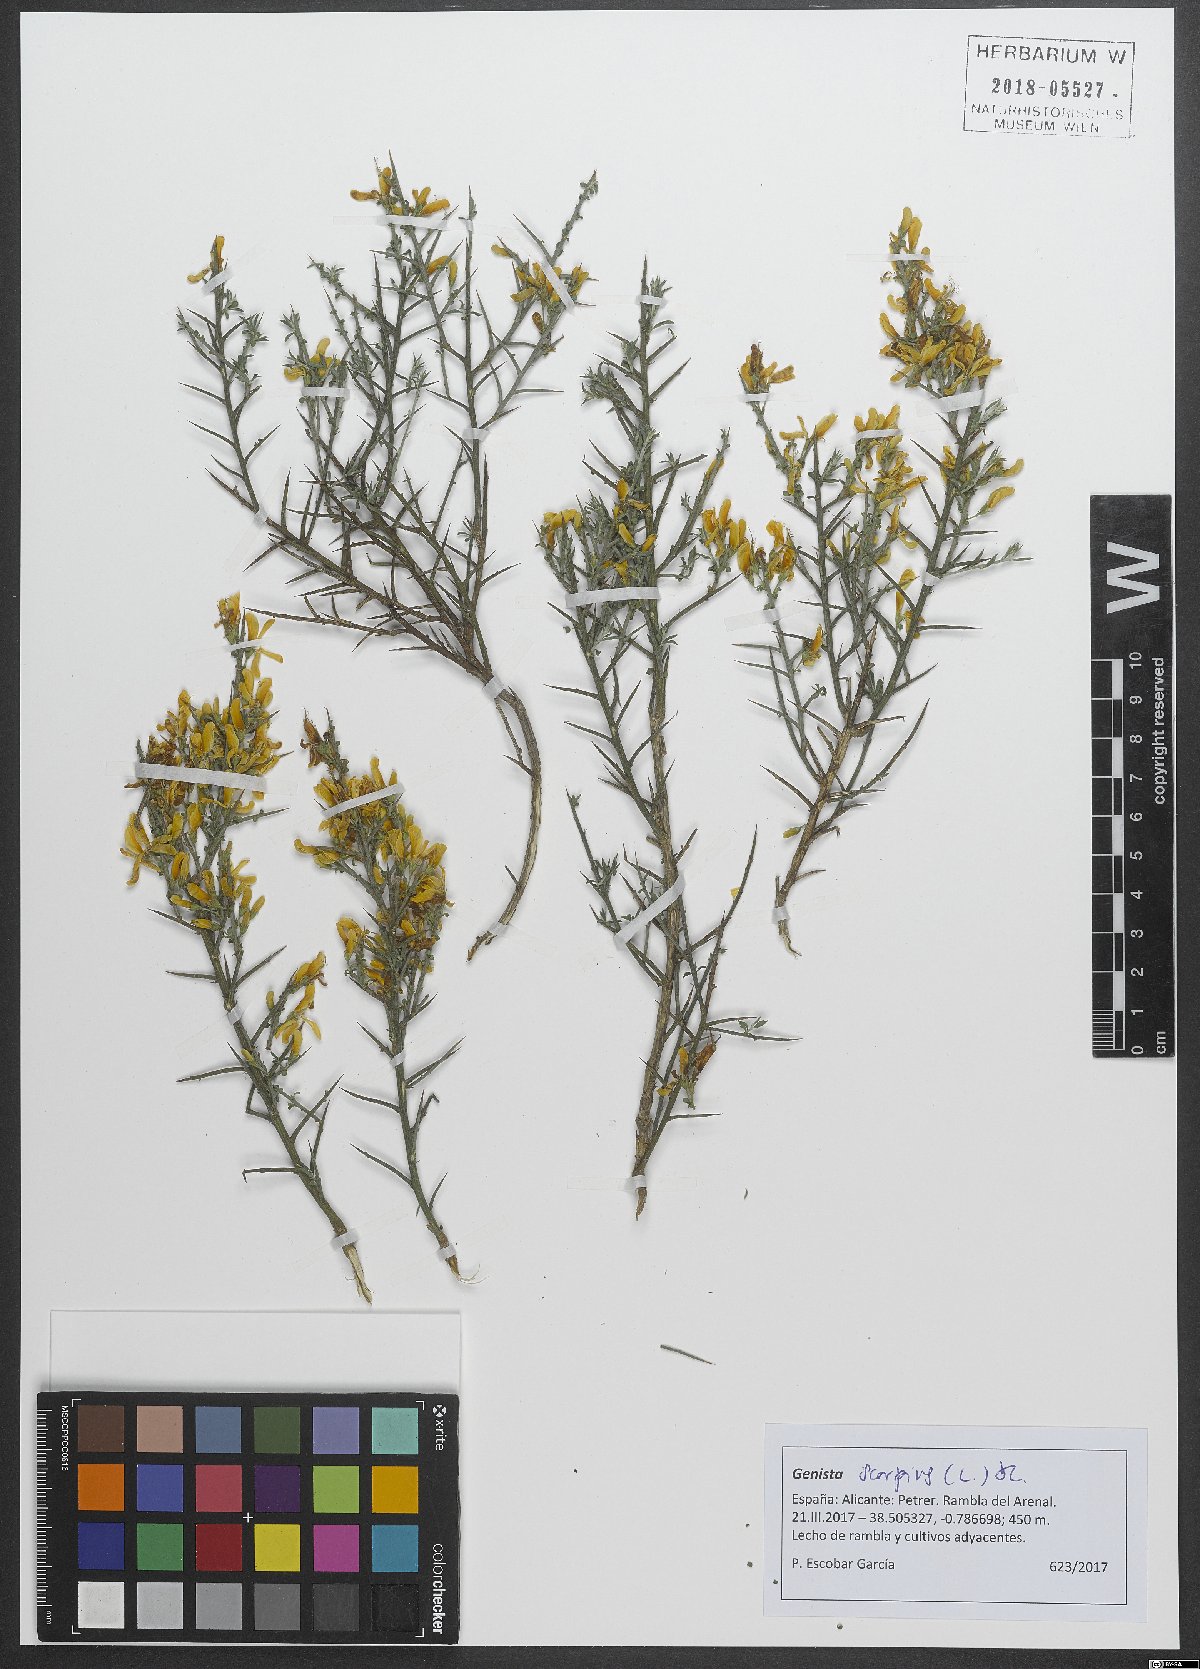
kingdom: Plantae
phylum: Tracheophyta
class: Magnoliopsida
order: Fabales
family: Fabaceae
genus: Genista
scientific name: Genista scorpius
